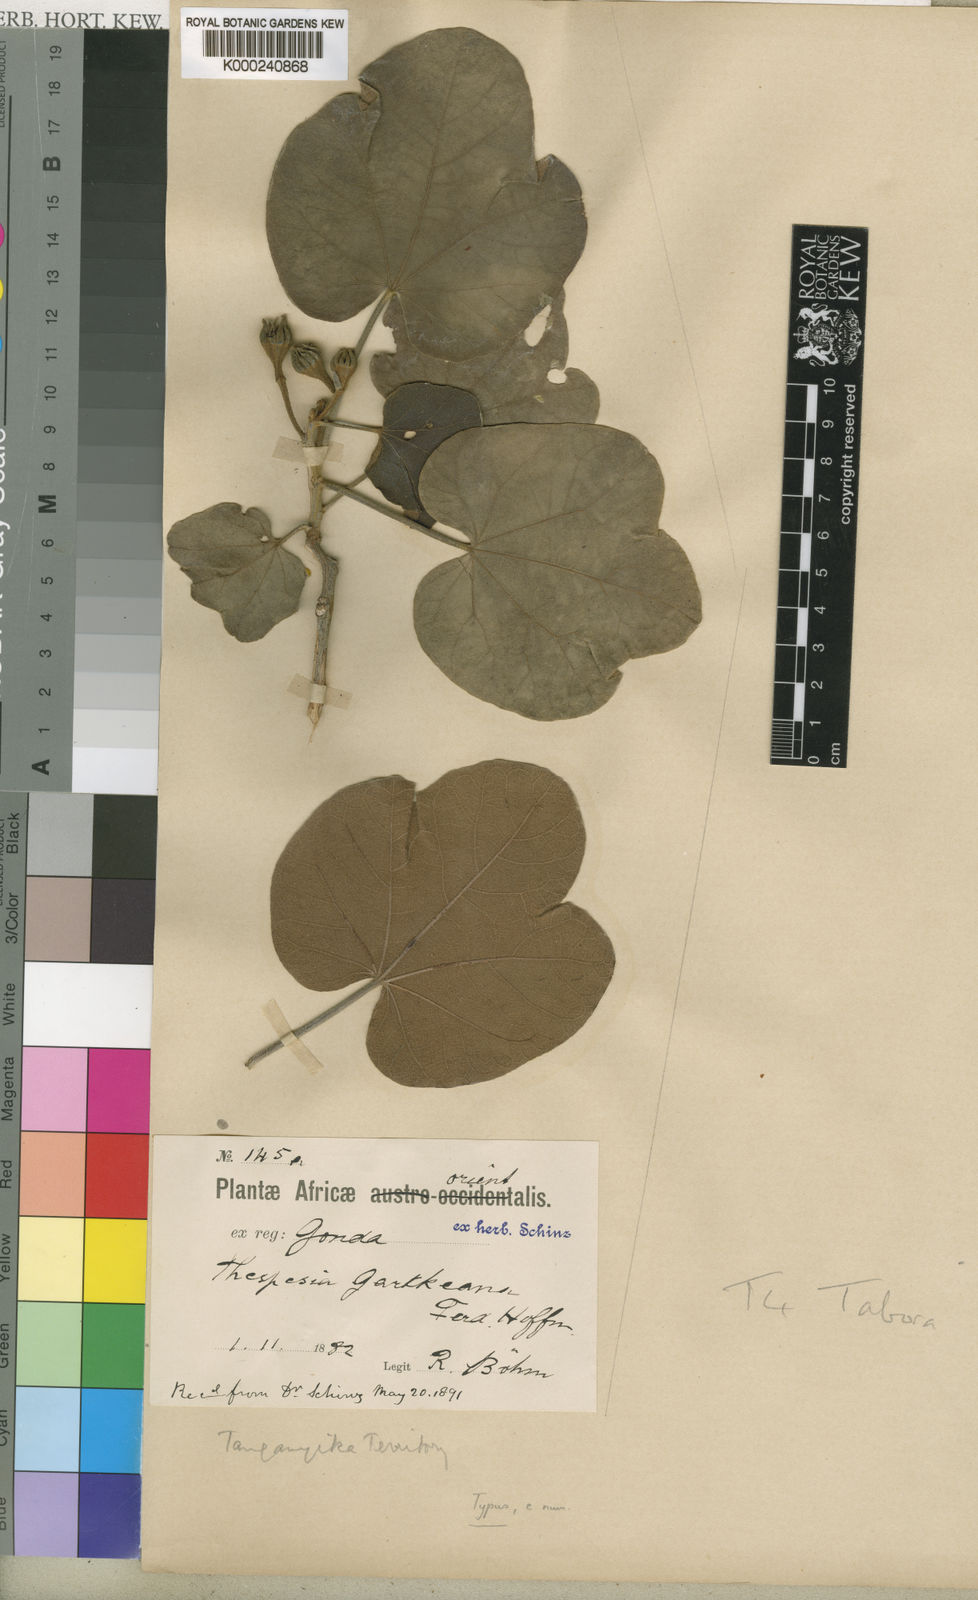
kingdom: Plantae
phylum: Tracheophyta
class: Magnoliopsida
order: Malvales
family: Malvaceae
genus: Thespesia
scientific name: Thespesia garckeana
